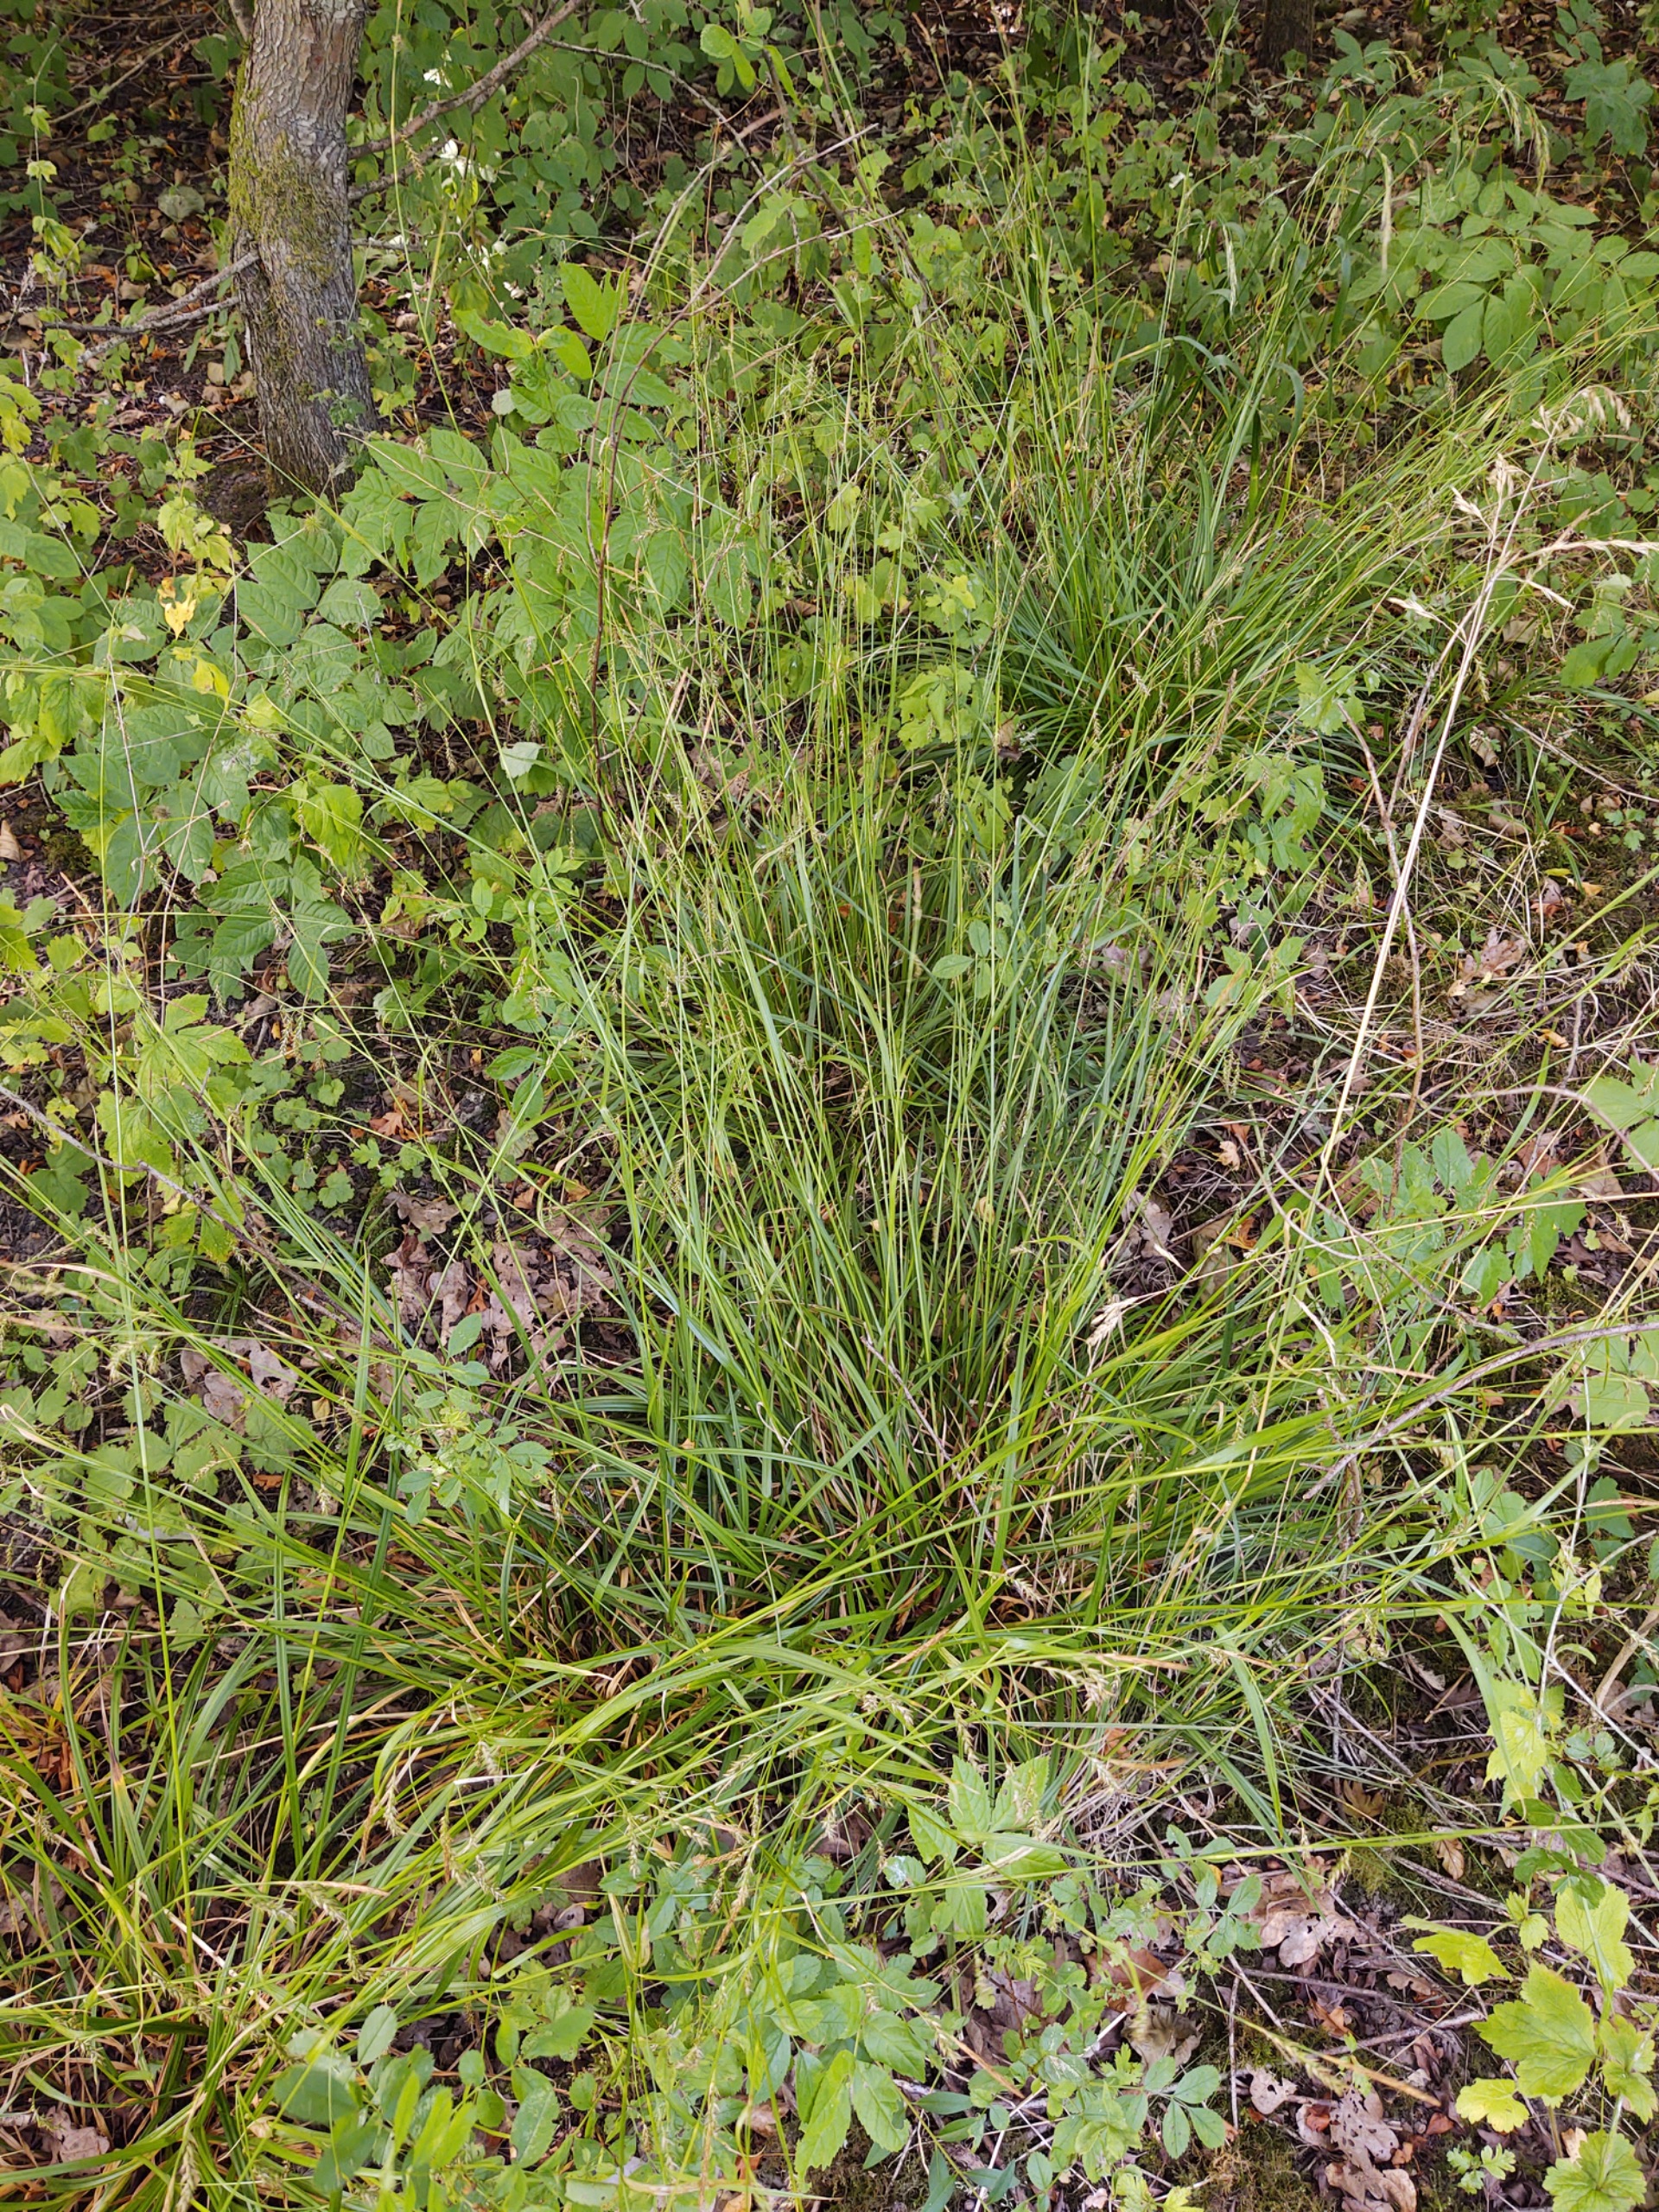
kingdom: Plantae
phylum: Tracheophyta
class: Liliopsida
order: Poales
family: Cyperaceae
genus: Carex
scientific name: Carex sylvatica
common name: Skov-star
